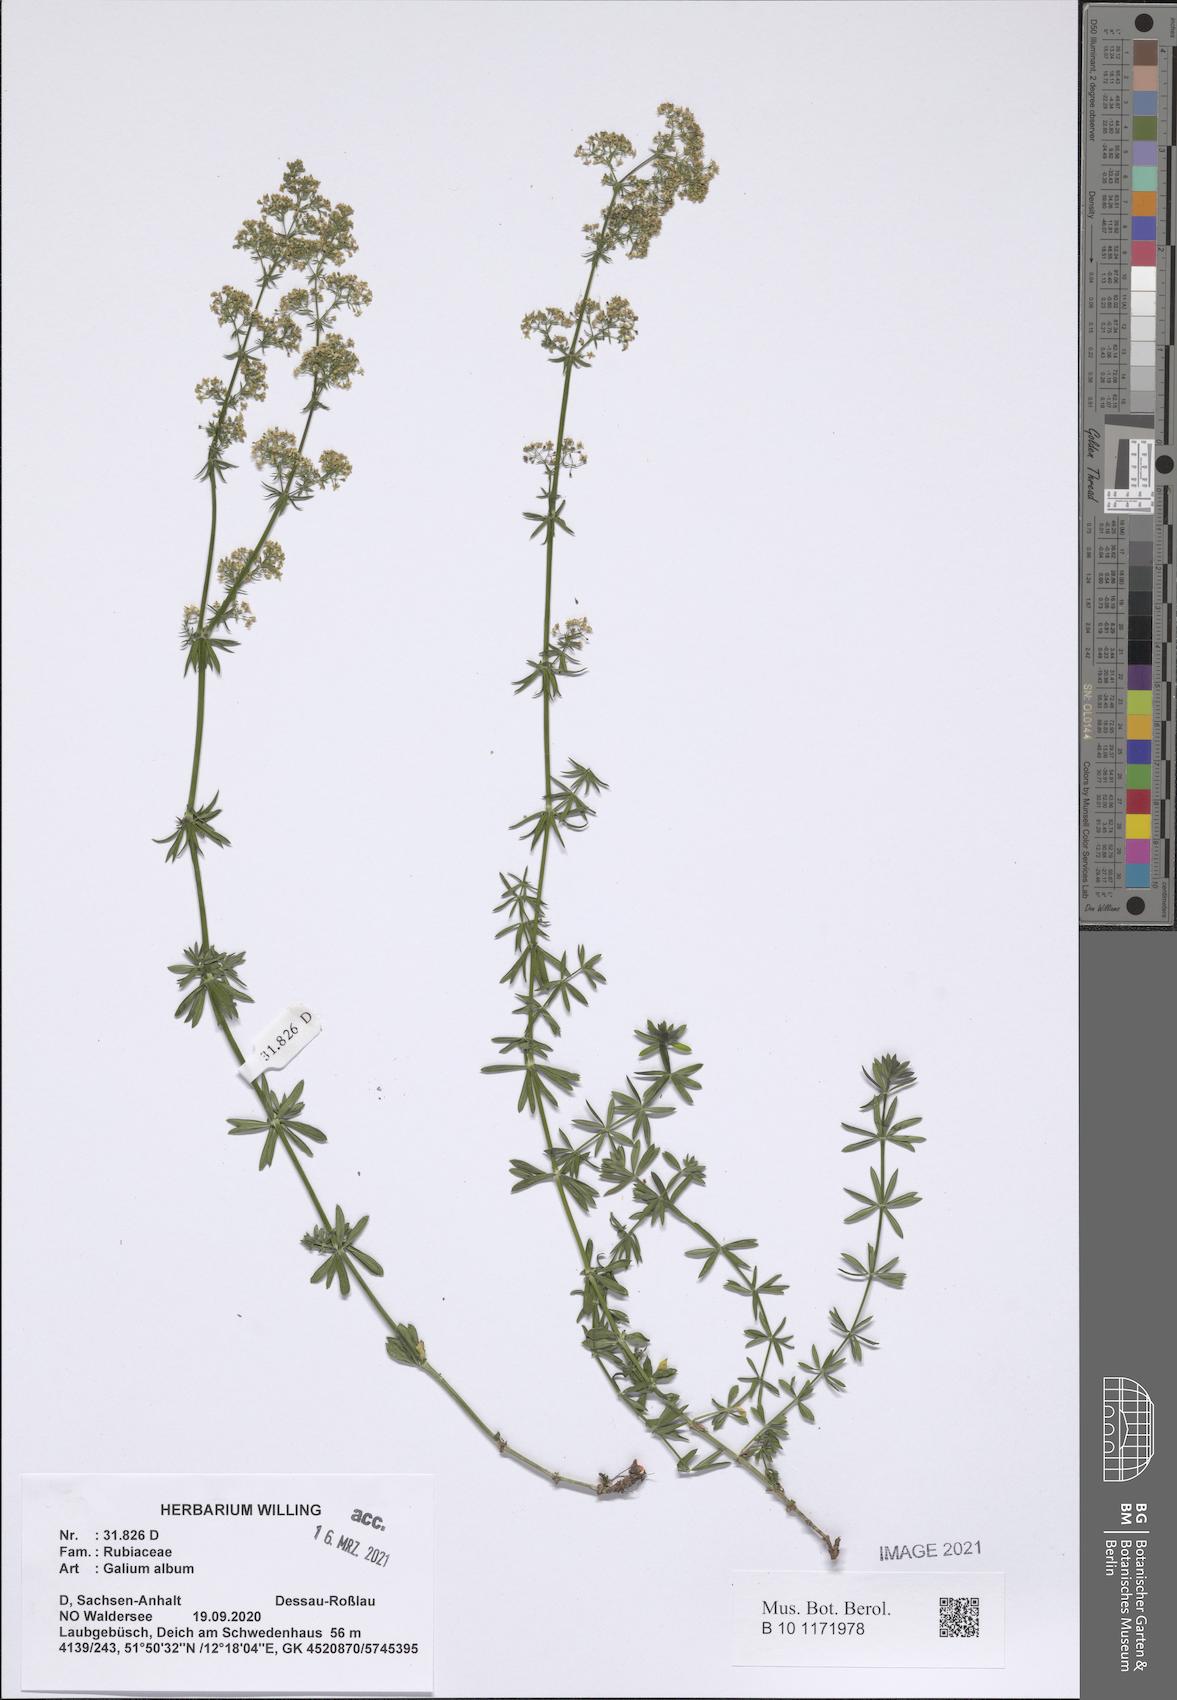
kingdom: Plantae
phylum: Tracheophyta
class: Magnoliopsida
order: Gentianales
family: Rubiaceae
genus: Galium
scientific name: Galium album
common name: White bedstraw
